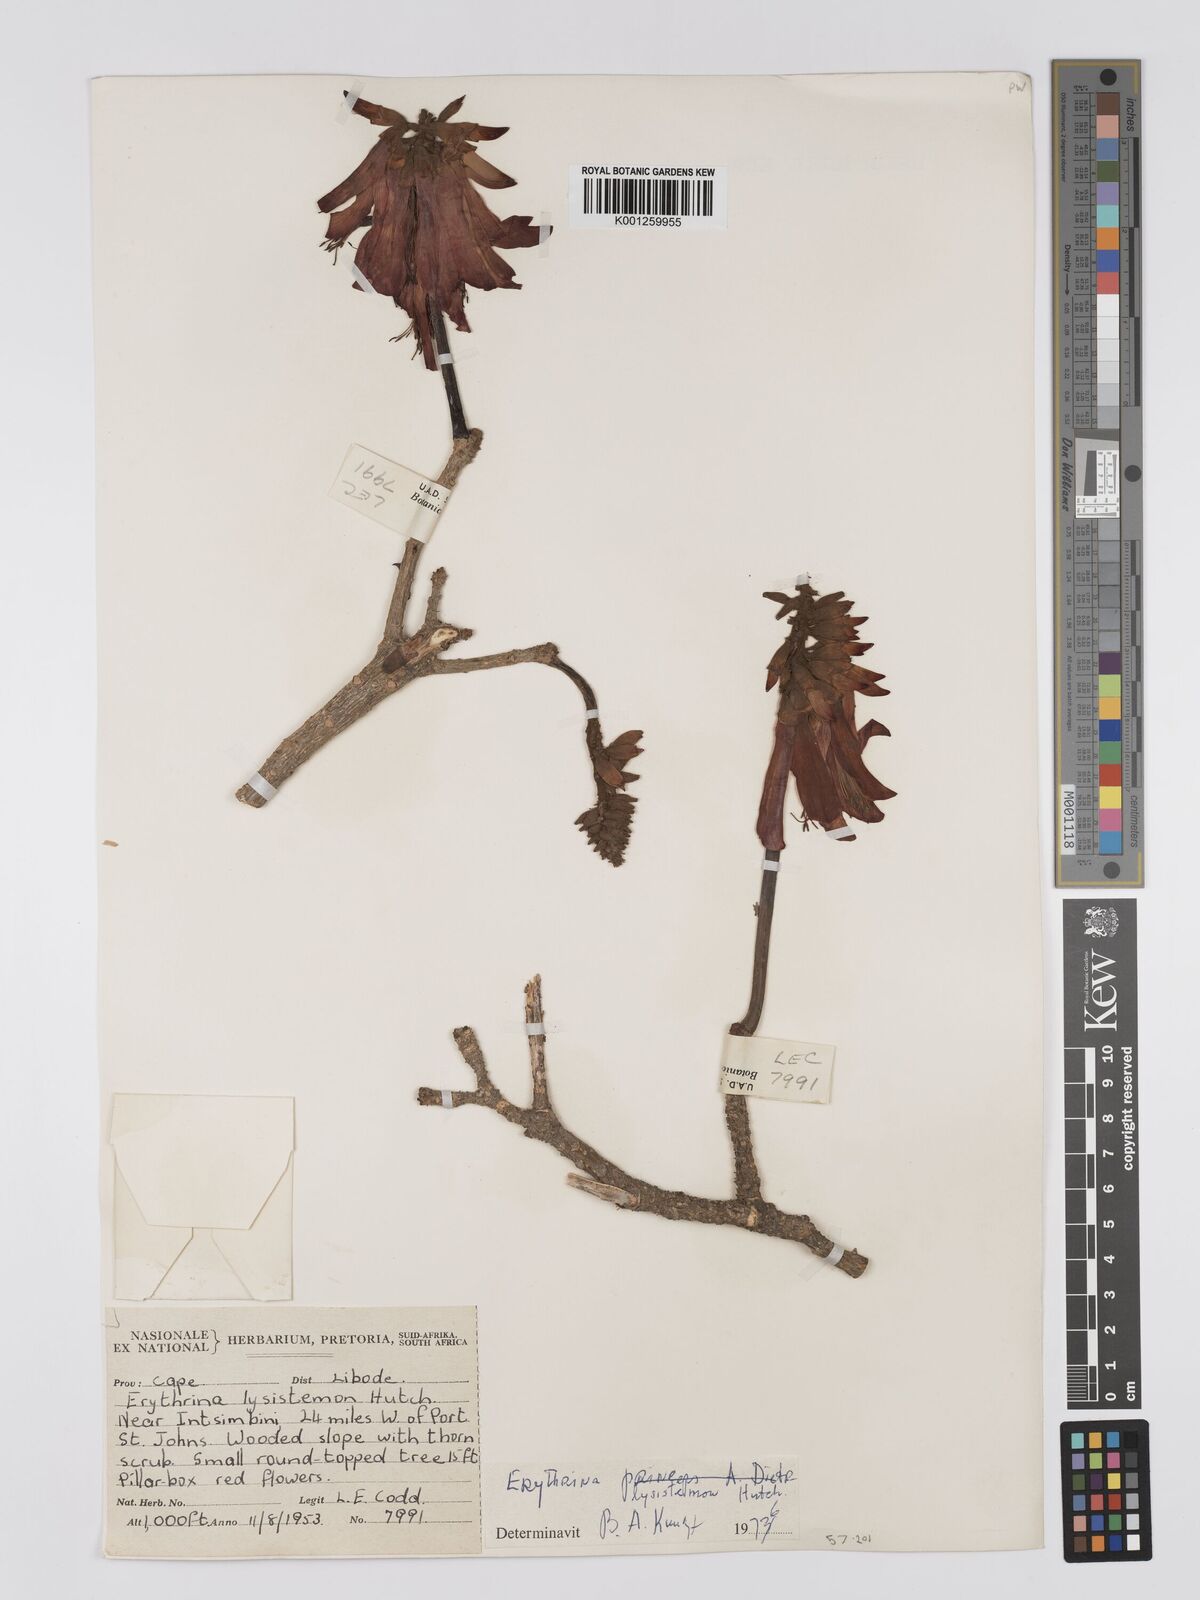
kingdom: Plantae
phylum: Tracheophyta
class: Magnoliopsida
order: Fabales
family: Fabaceae
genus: Erythrina
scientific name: Erythrina lysistemon
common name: Common coral tree
